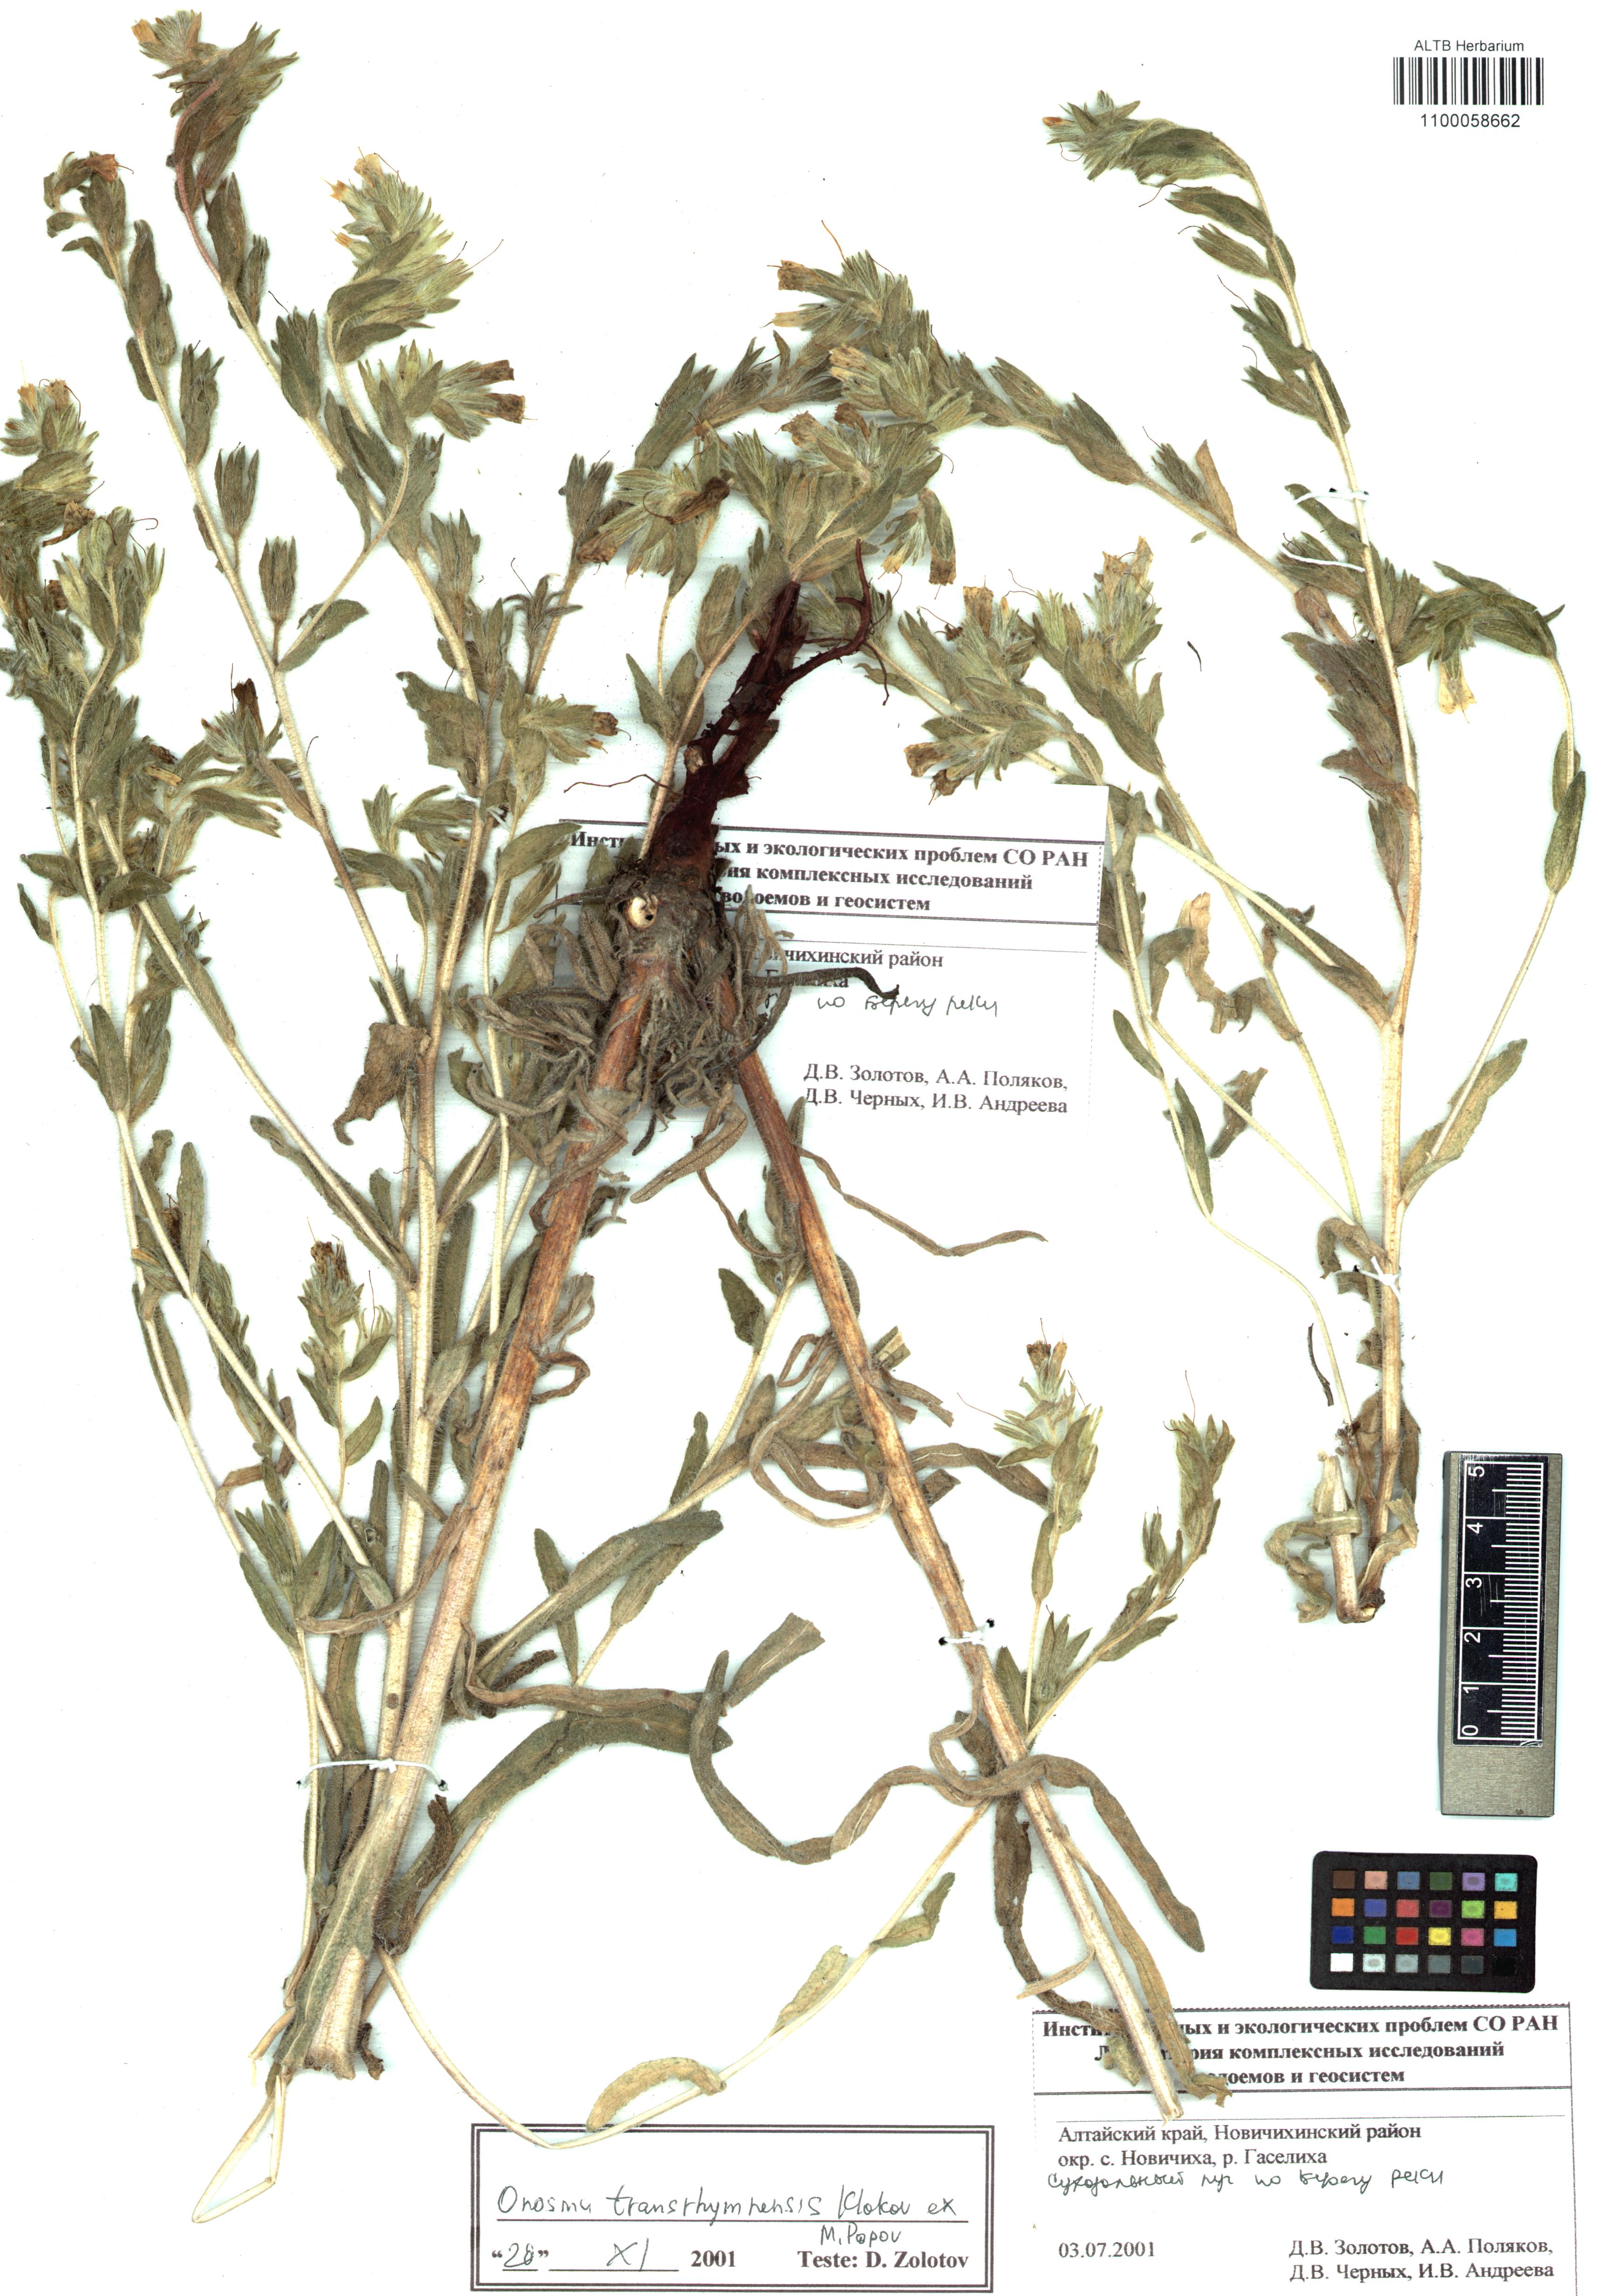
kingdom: Plantae
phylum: Tracheophyta
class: Magnoliopsida
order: Boraginales
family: Boraginaceae
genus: Onosma
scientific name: Onosma setosa
